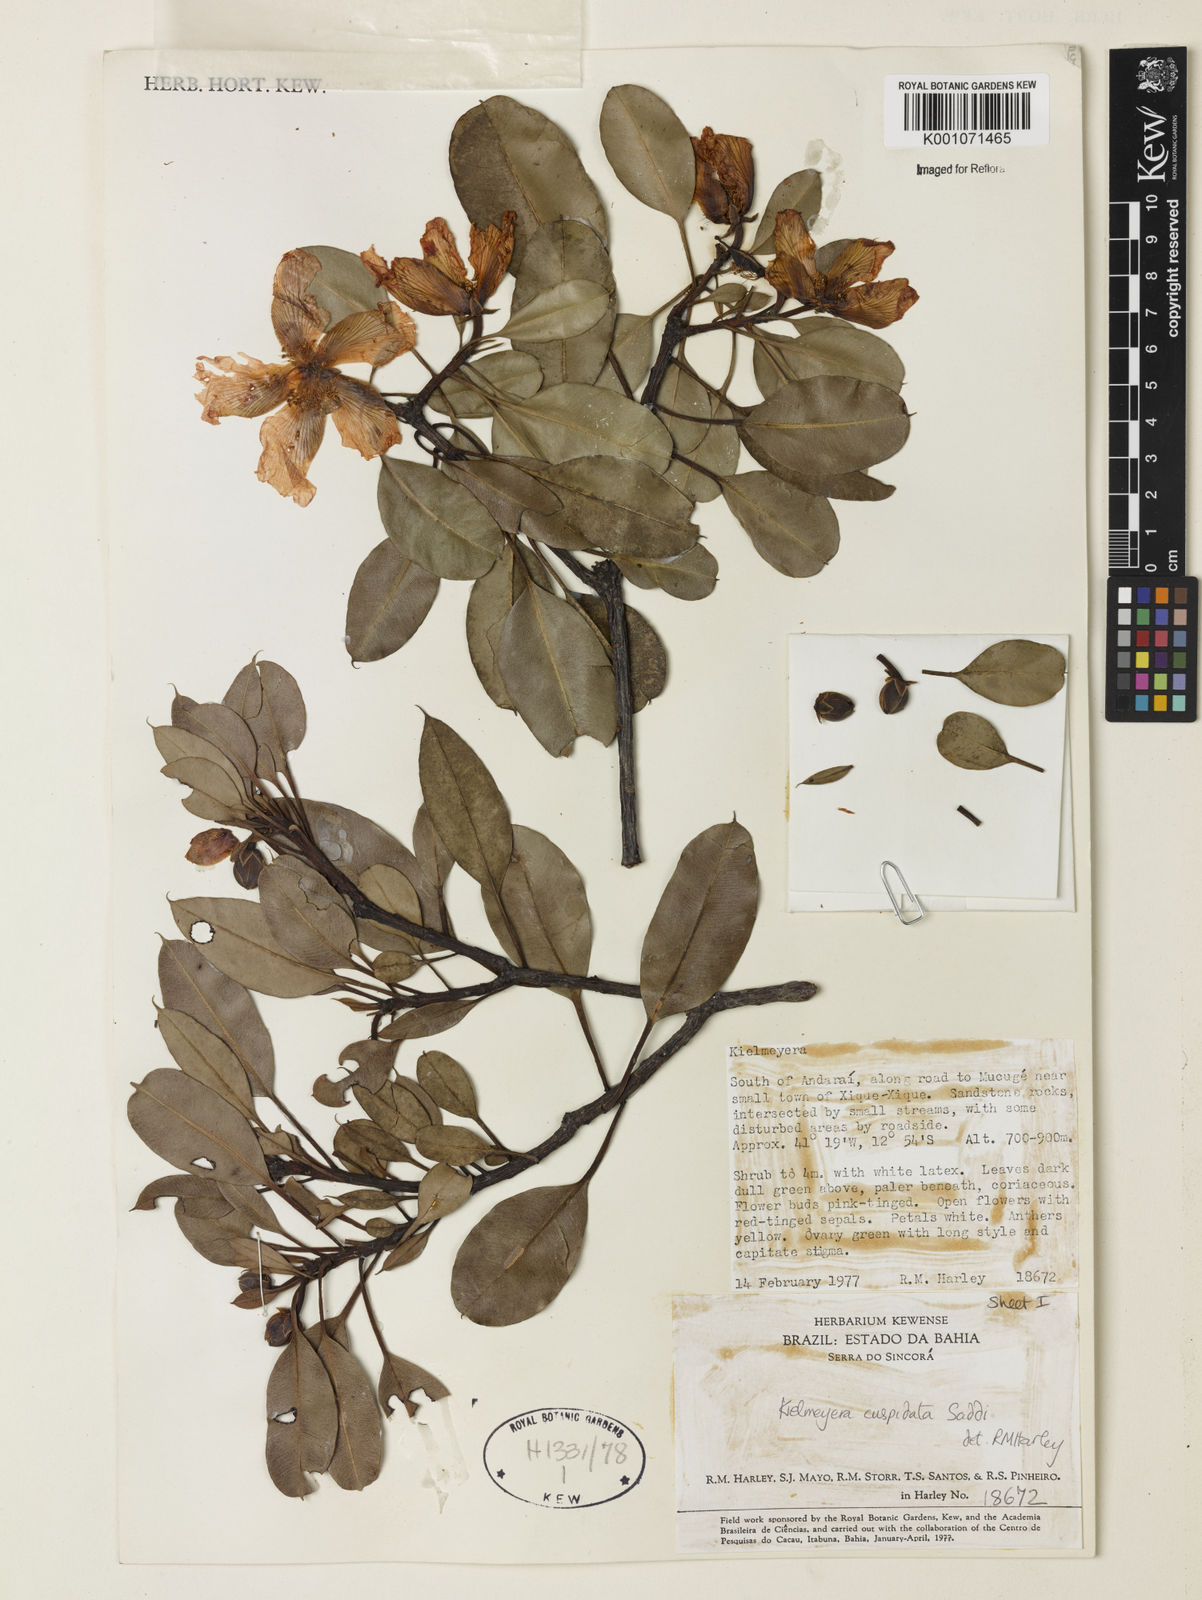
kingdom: Plantae
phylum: Tracheophyta
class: Magnoliopsida
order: Malpighiales
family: Calophyllaceae
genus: Kielmeyera
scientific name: Kielmeyera cuspidata
